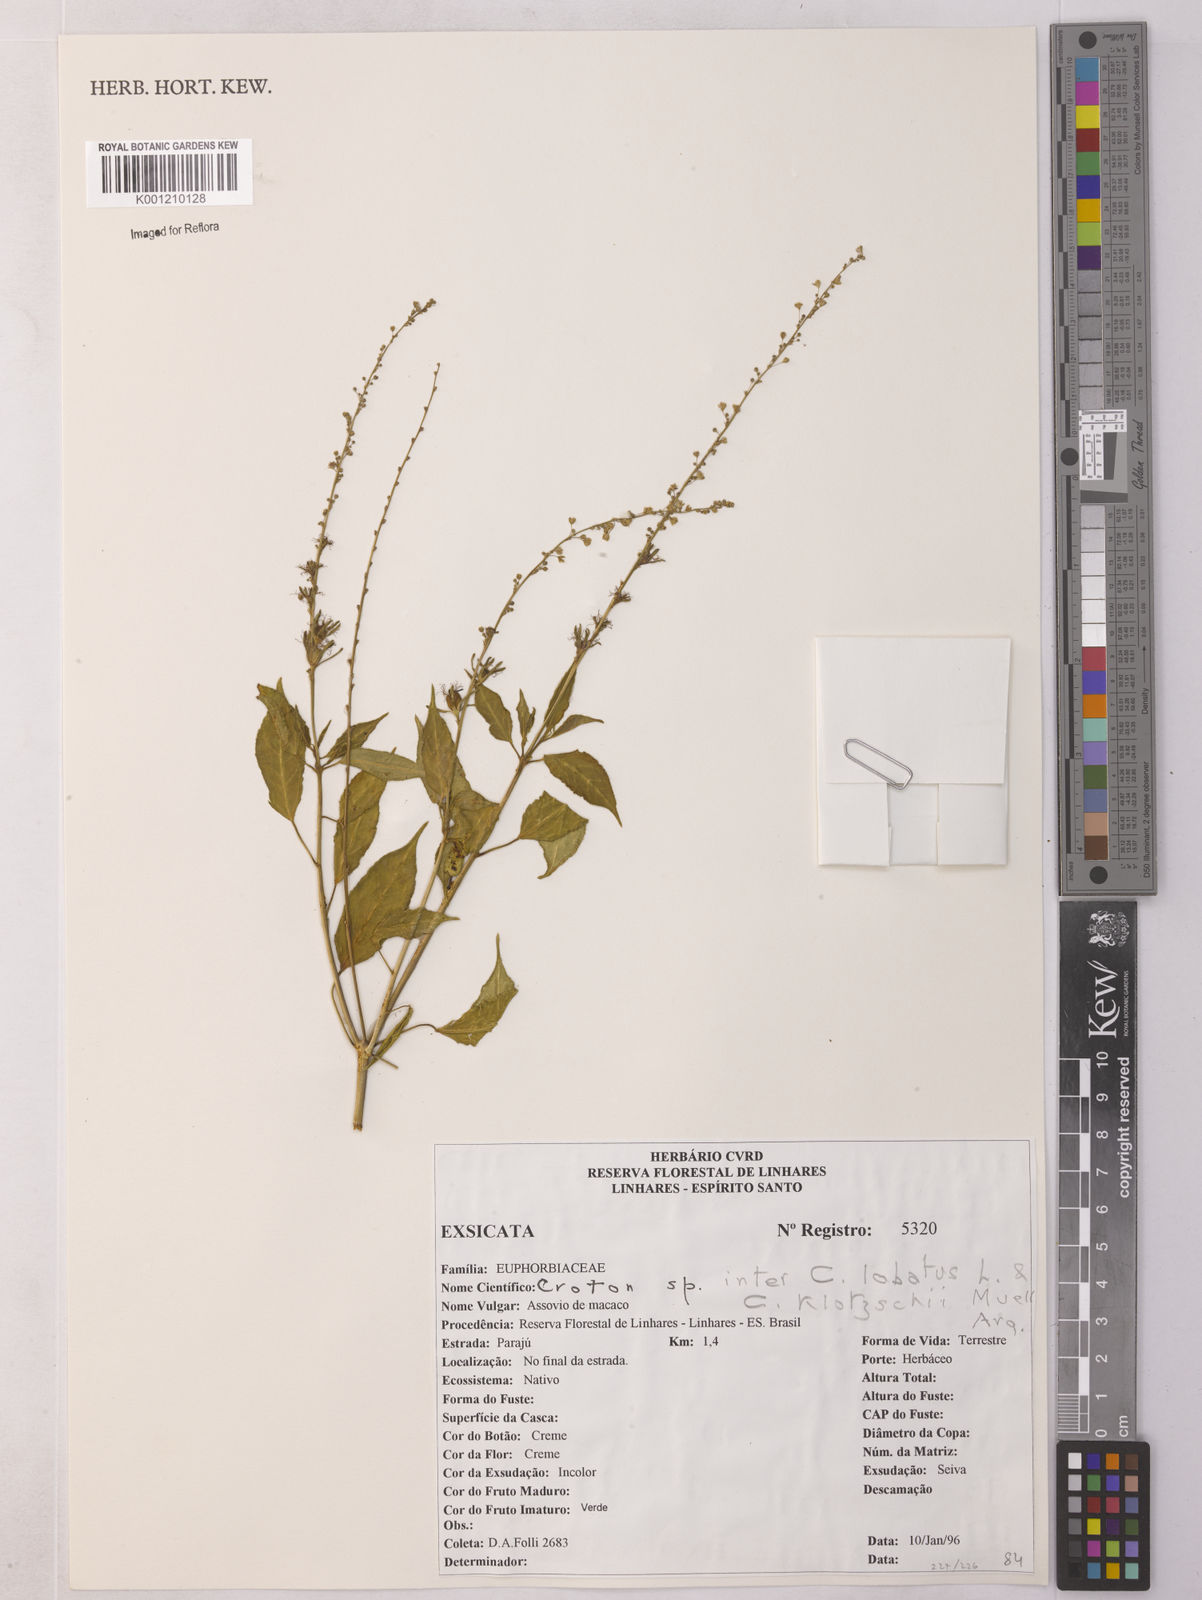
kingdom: Plantae
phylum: Tracheophyta
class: Magnoliopsida
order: Malpighiales
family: Euphorbiaceae
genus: Astraea
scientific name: Astraea macroura
